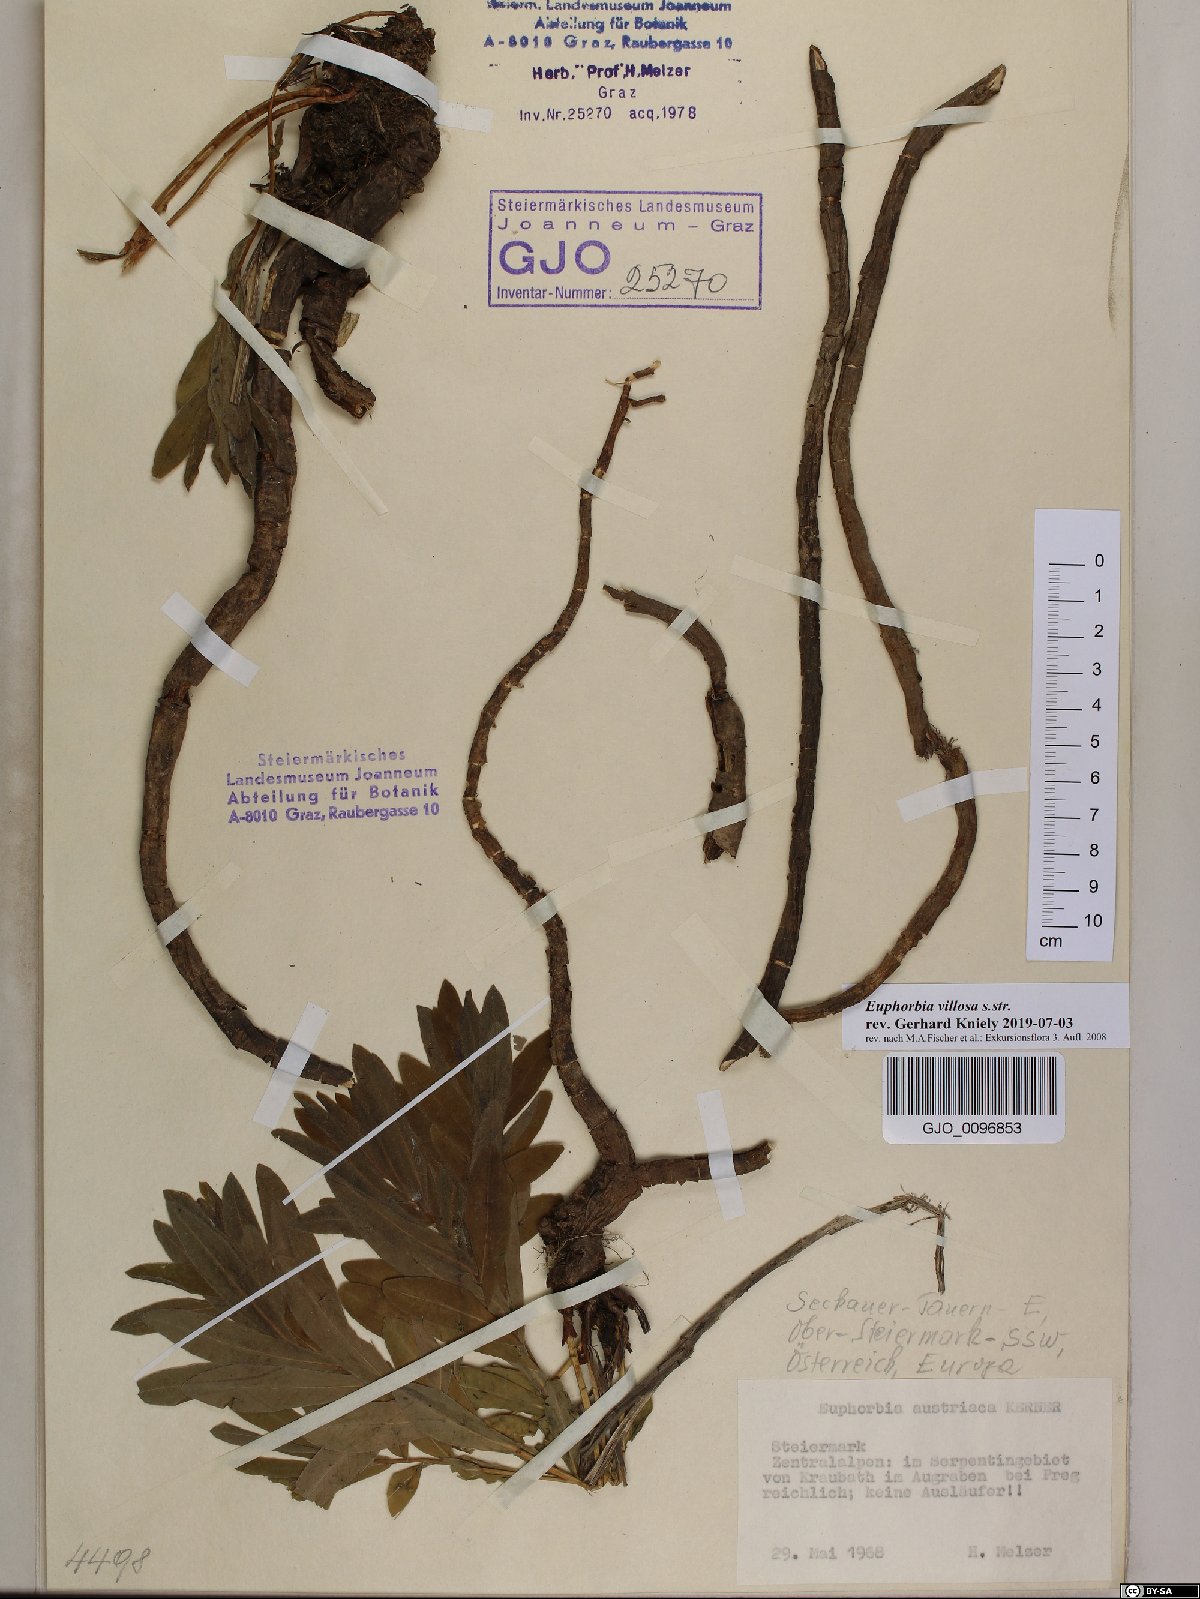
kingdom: Plantae
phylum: Tracheophyta
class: Magnoliopsida
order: Malpighiales
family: Euphorbiaceae
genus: Euphorbia
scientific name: Euphorbia illirica
